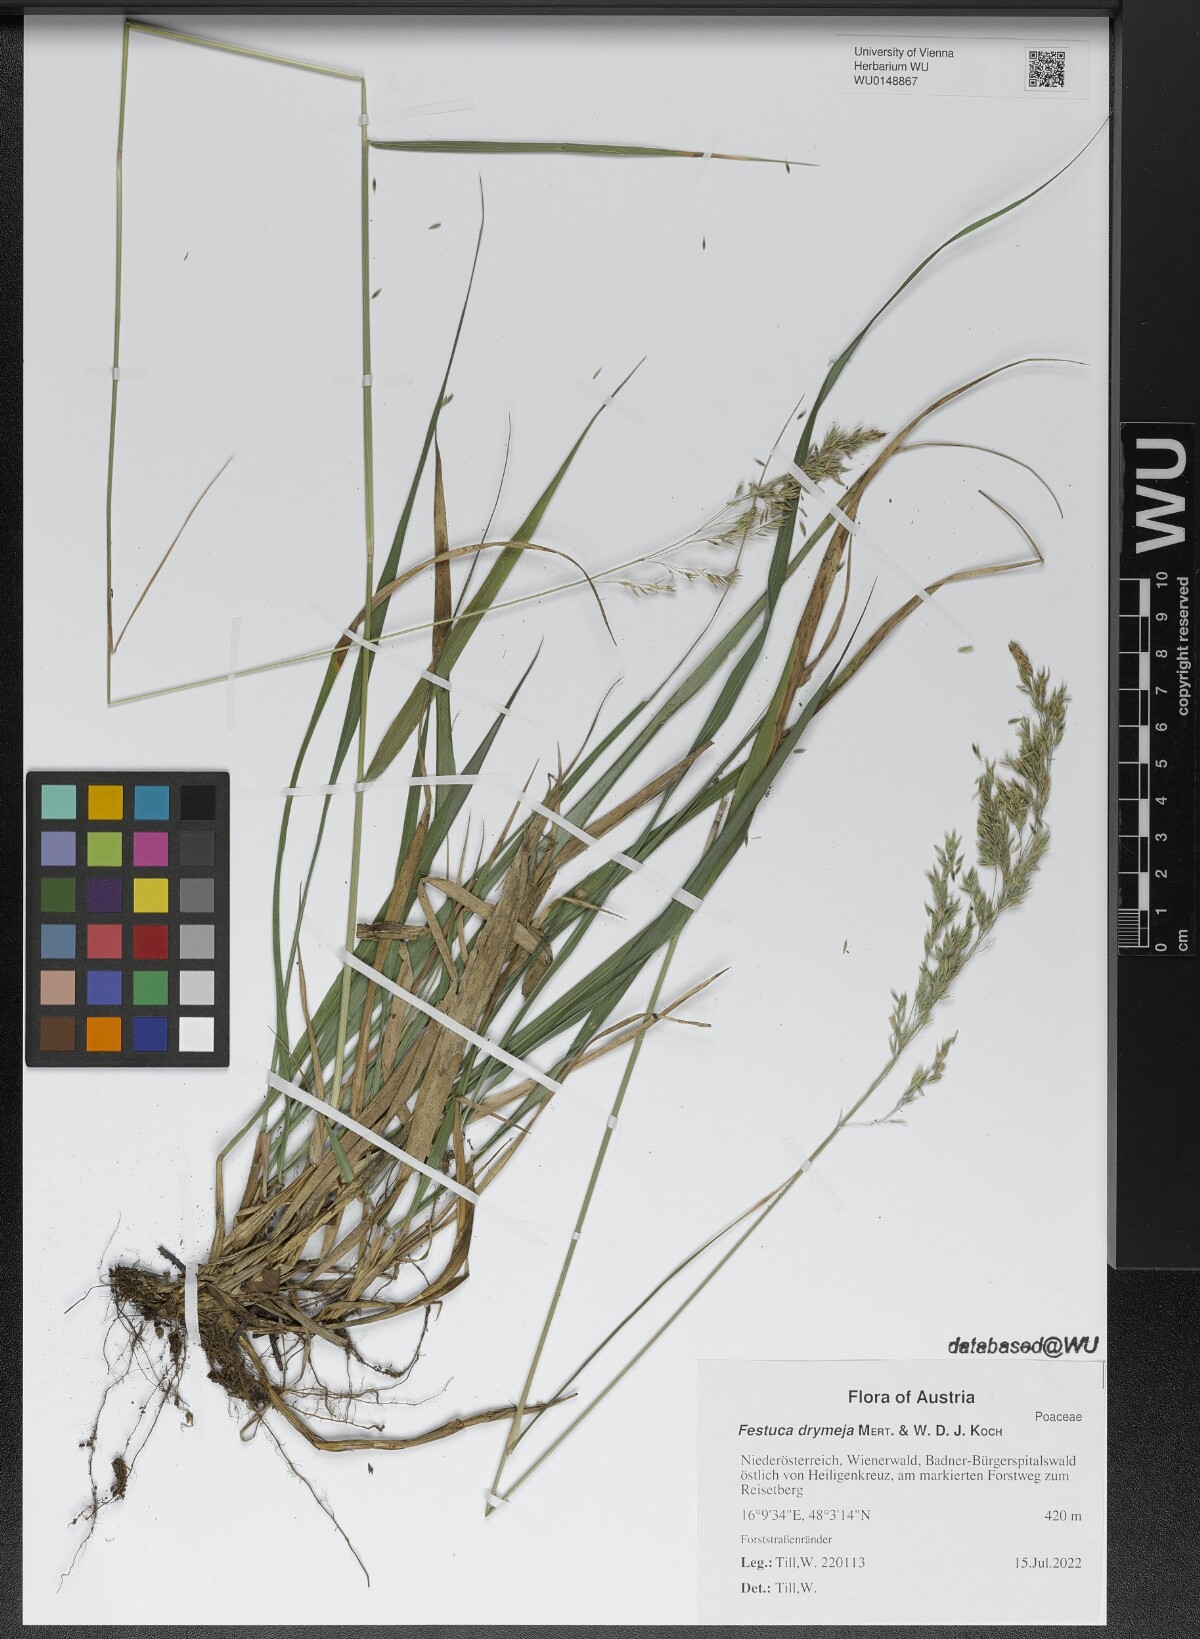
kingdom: Plantae
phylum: Tracheophyta
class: Liliopsida
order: Poales
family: Poaceae
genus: Festuca
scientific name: Festuca drymeja
